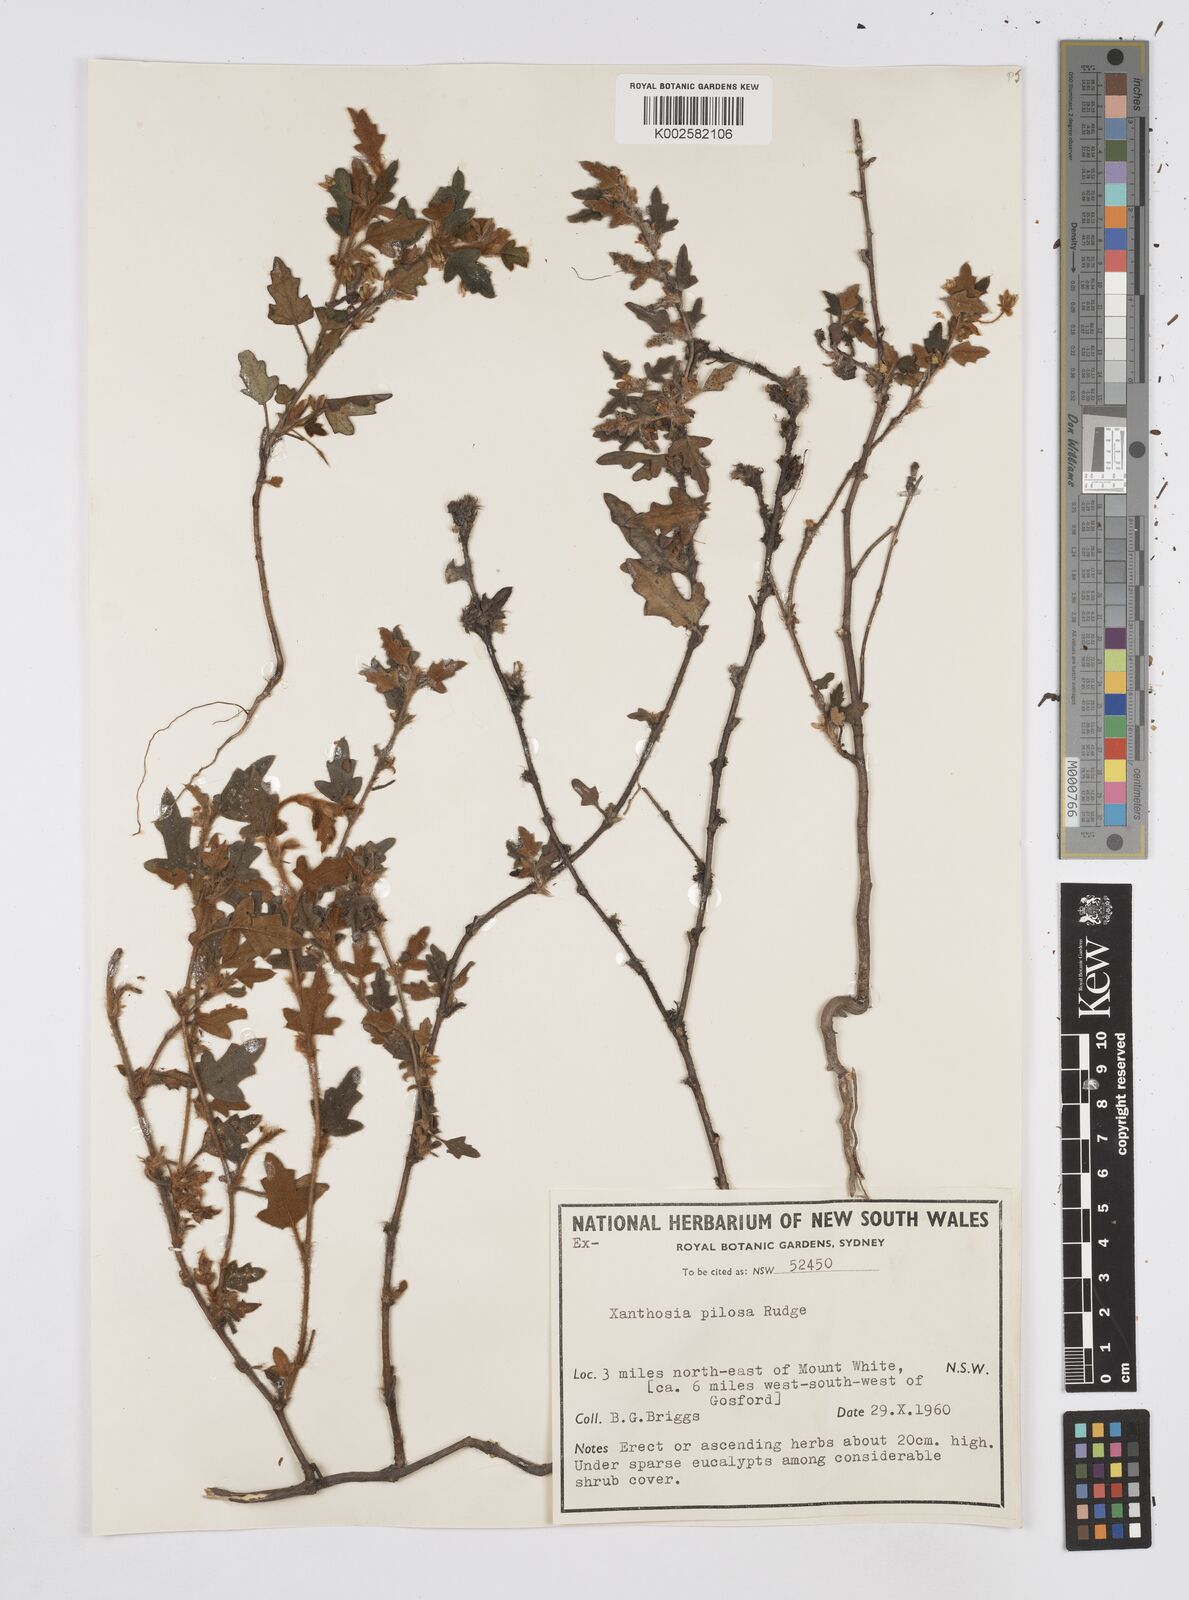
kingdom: Plantae
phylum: Tracheophyta
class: Magnoliopsida
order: Apiales
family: Apiaceae
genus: Xanthosia
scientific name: Xanthosia pilosa
